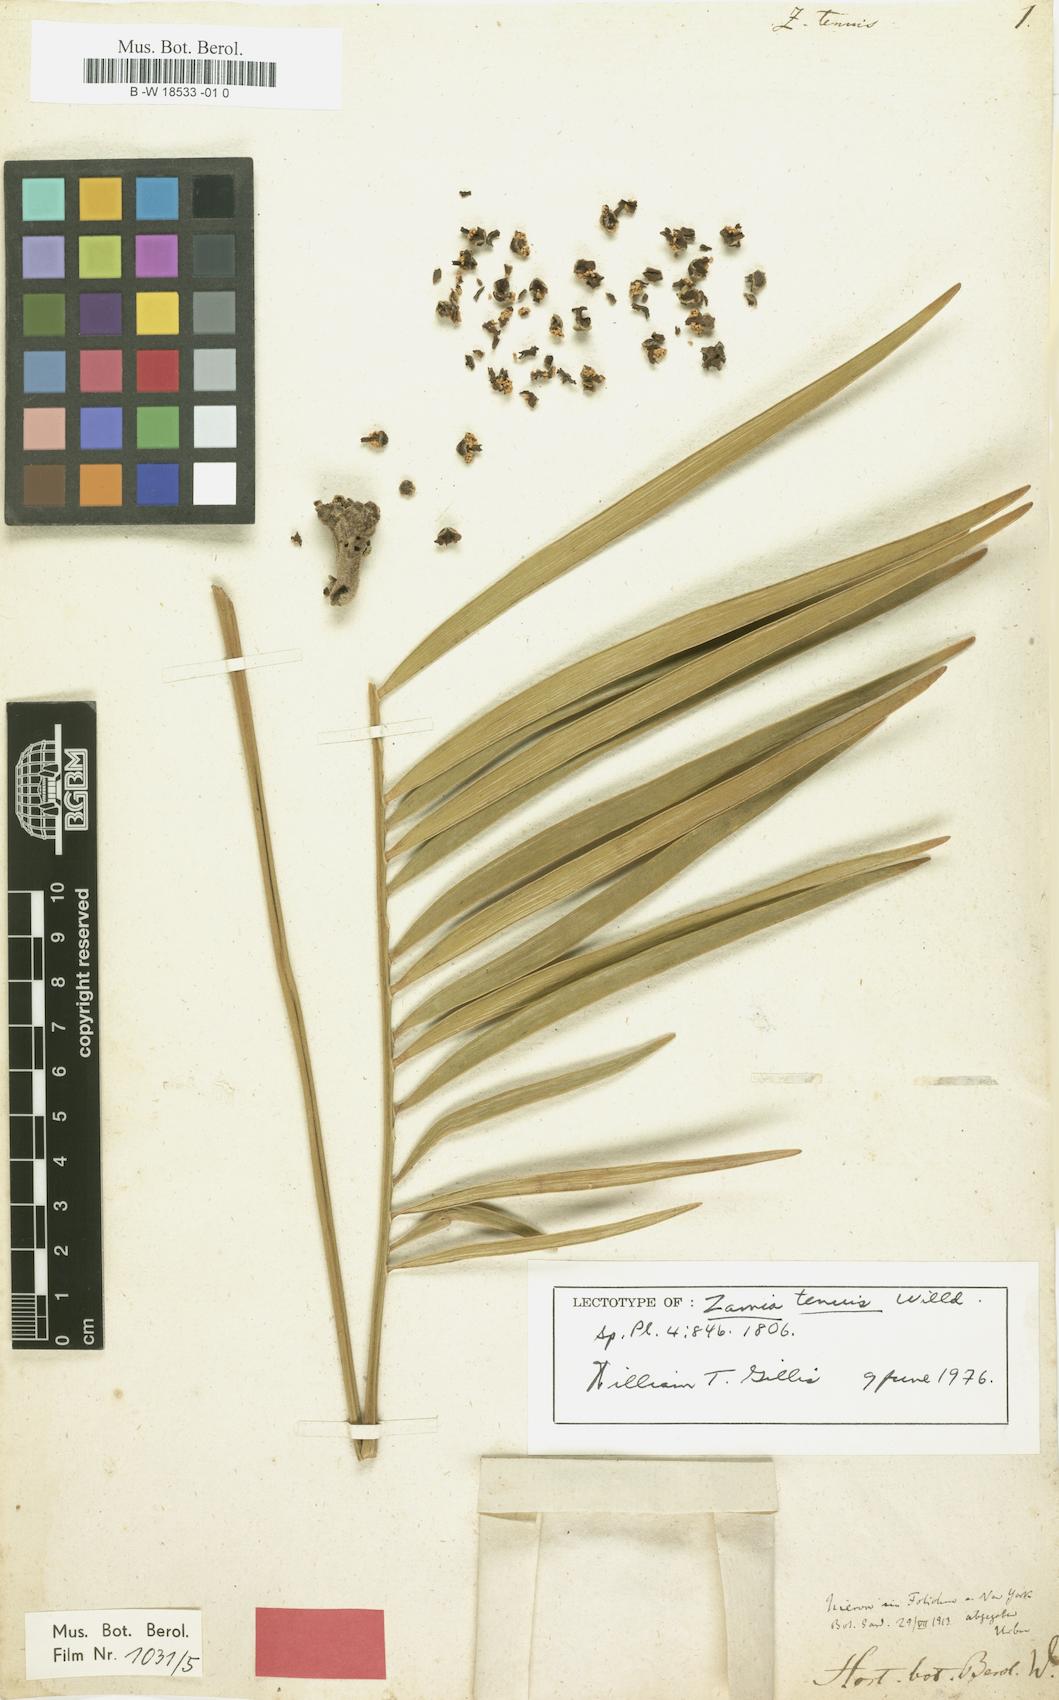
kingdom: Plantae
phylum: Tracheophyta
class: Cycadopsida
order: Cycadales
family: Zamiaceae
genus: Zamia
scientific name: Zamia integrifolia
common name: Florida arrowroot
